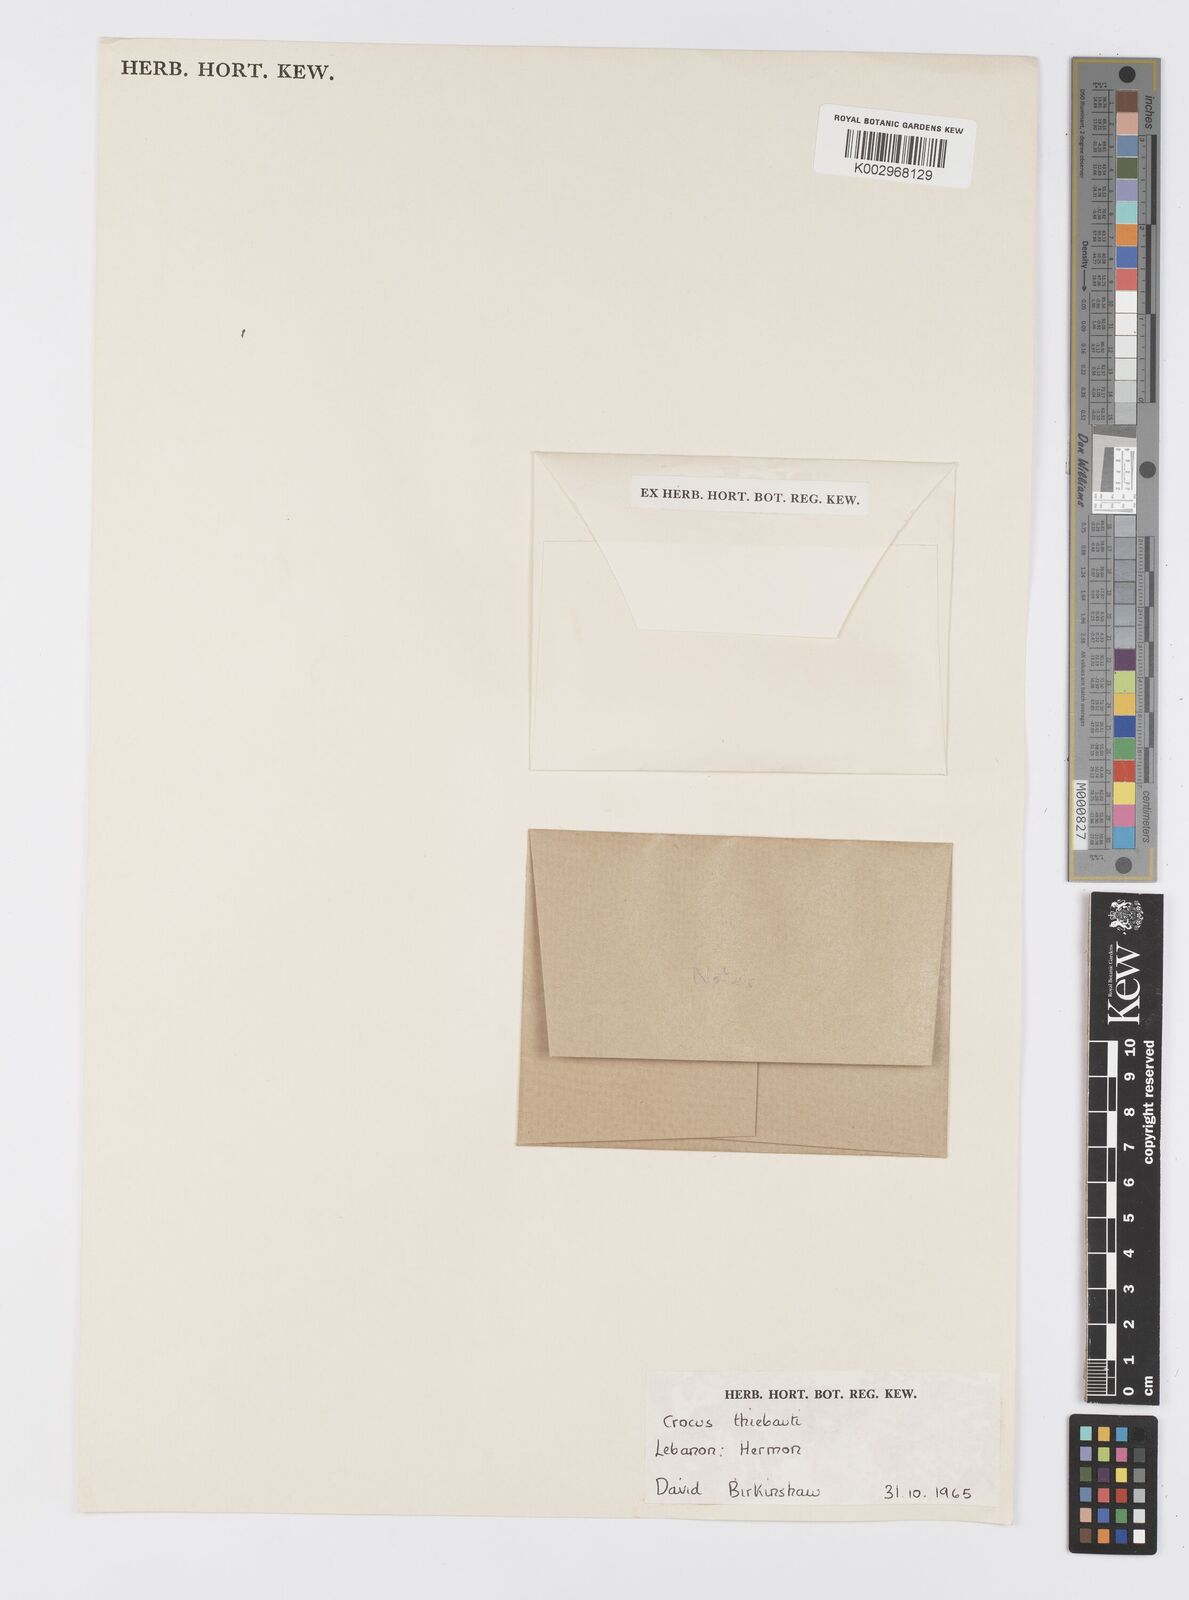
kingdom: Plantae
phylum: Tracheophyta
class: Liliopsida
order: Asparagales
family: Iridaceae
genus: Crocus
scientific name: Crocus
